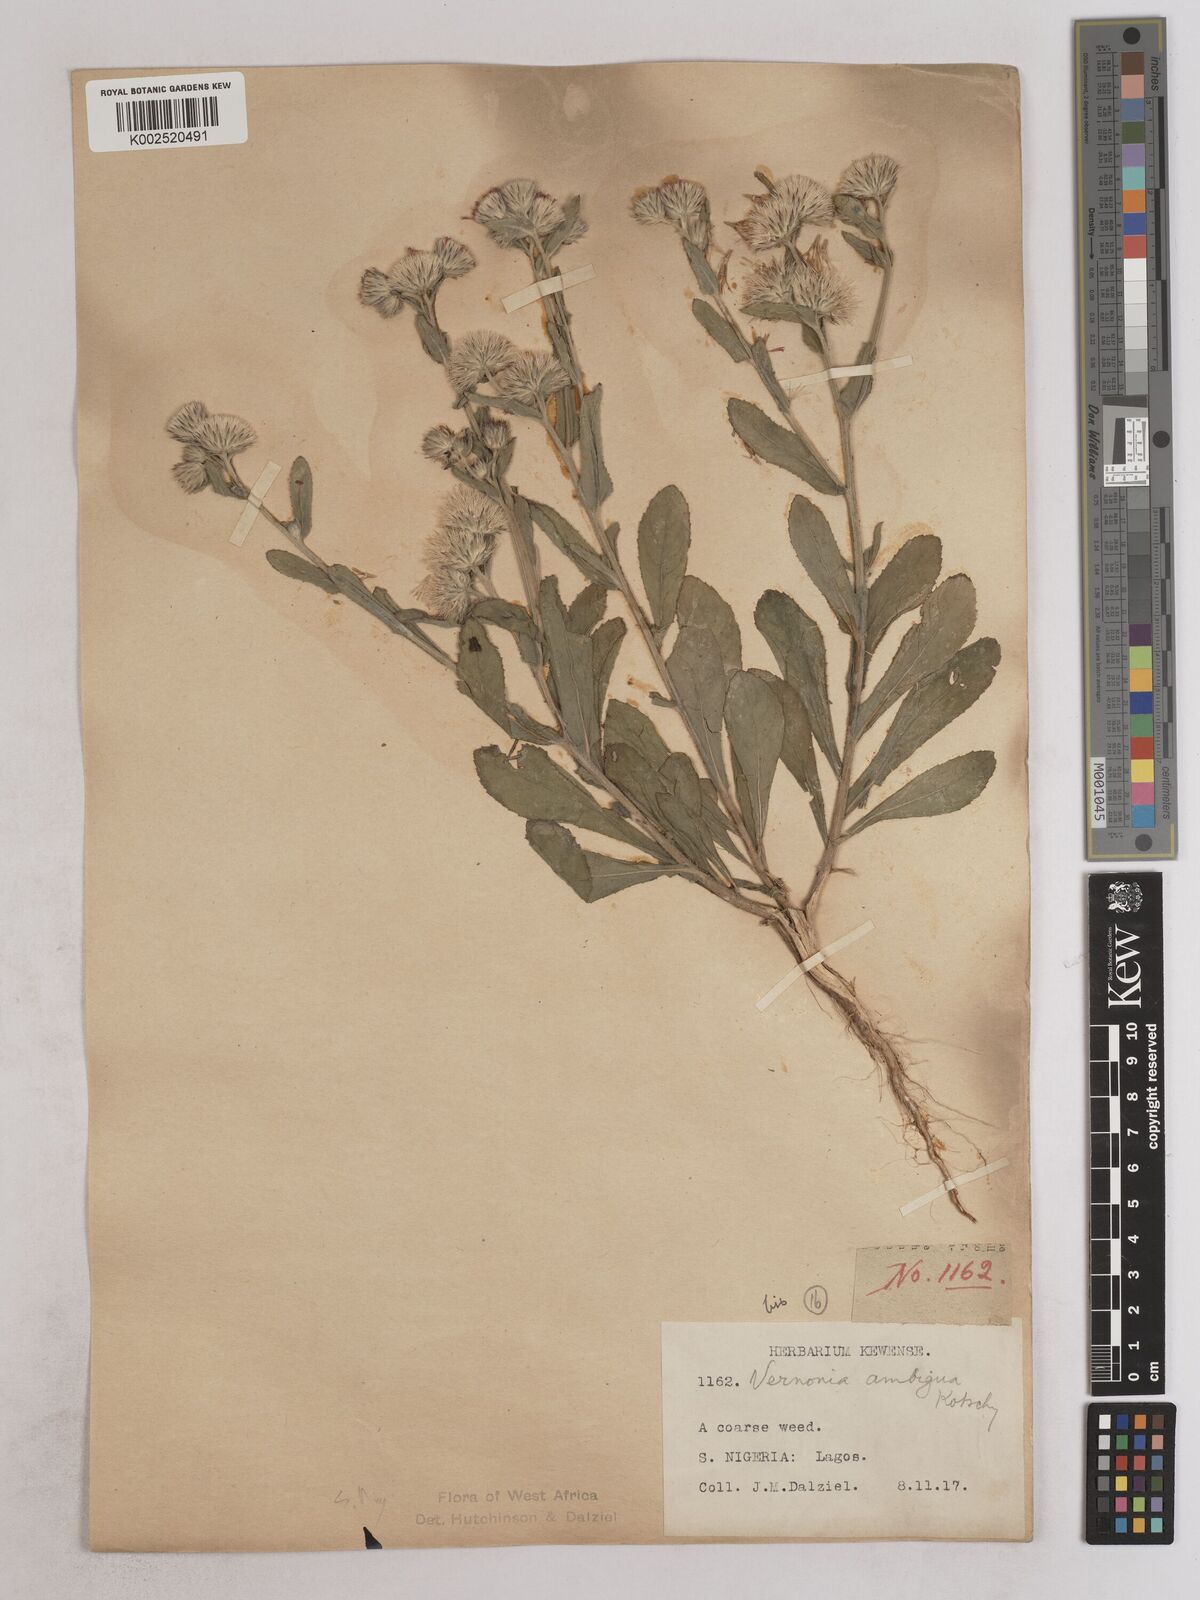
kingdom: Plantae
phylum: Tracheophyta
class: Magnoliopsida
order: Asterales
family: Asteraceae
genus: Vernoniastrum
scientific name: Vernoniastrum ambiguum
